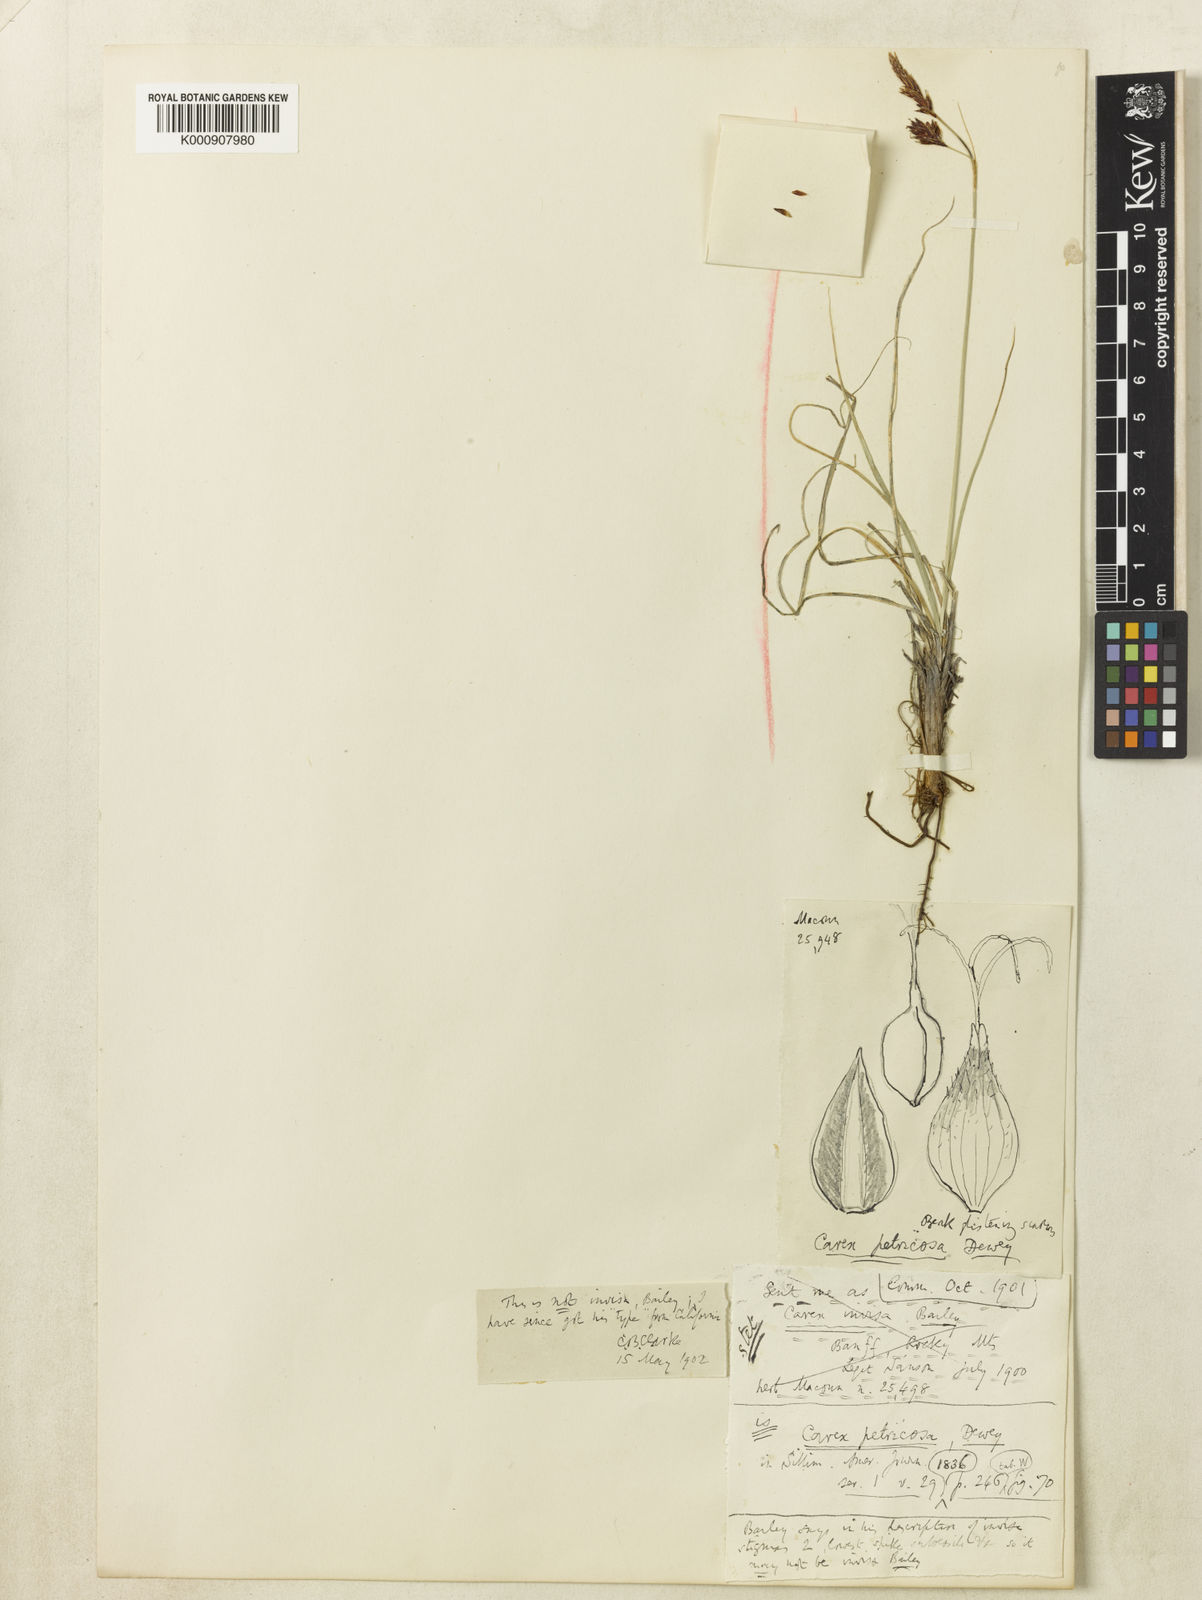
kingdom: Plantae
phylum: Tracheophyta
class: Liliopsida
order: Poales
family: Cyperaceae
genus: Carex
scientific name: Carex petricosa
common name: Rock sedge
